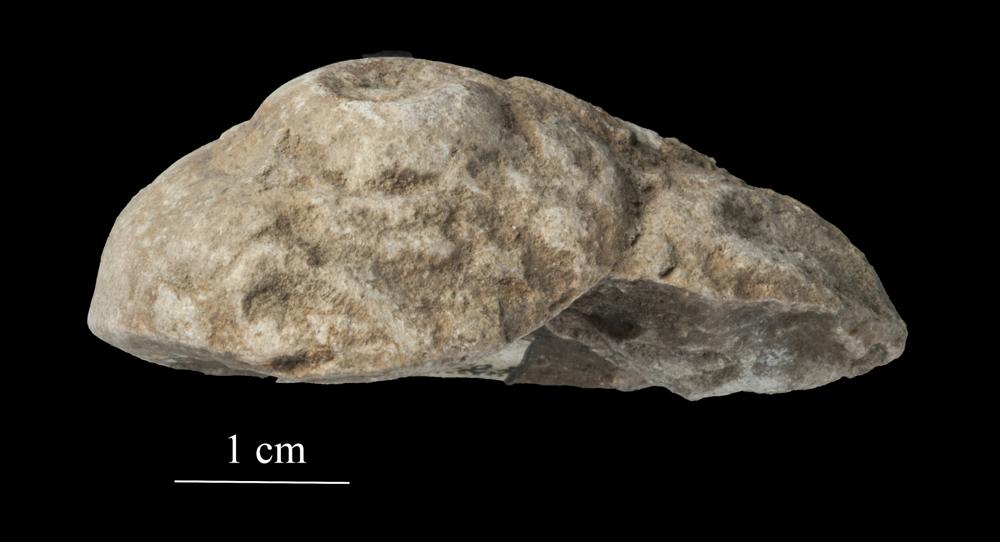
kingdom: Animalia
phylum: Mollusca
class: Gastropoda
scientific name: Gastropoda
